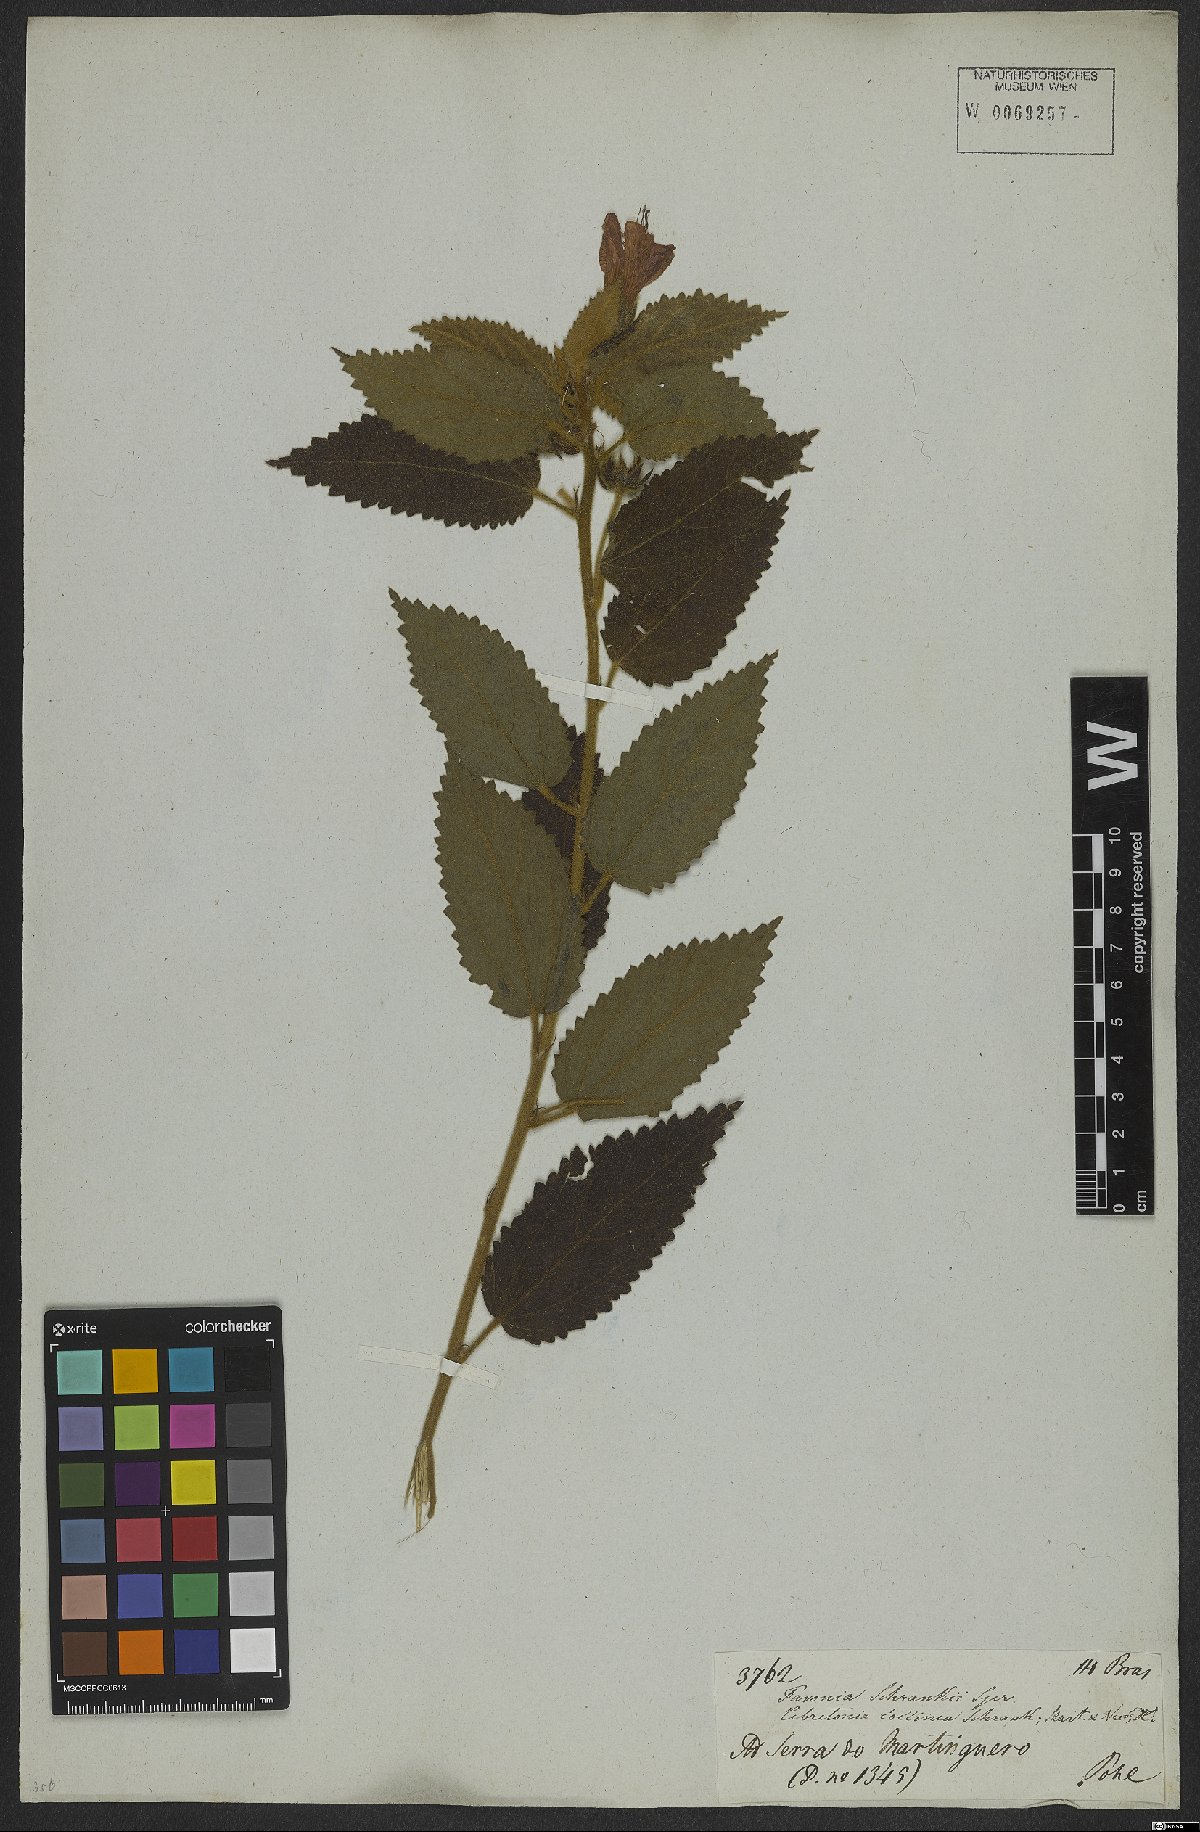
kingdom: Plantae
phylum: Tracheophyta
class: Magnoliopsida
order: Malvales
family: Malvaceae
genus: Pavonia
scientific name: Pavonia schrankii
